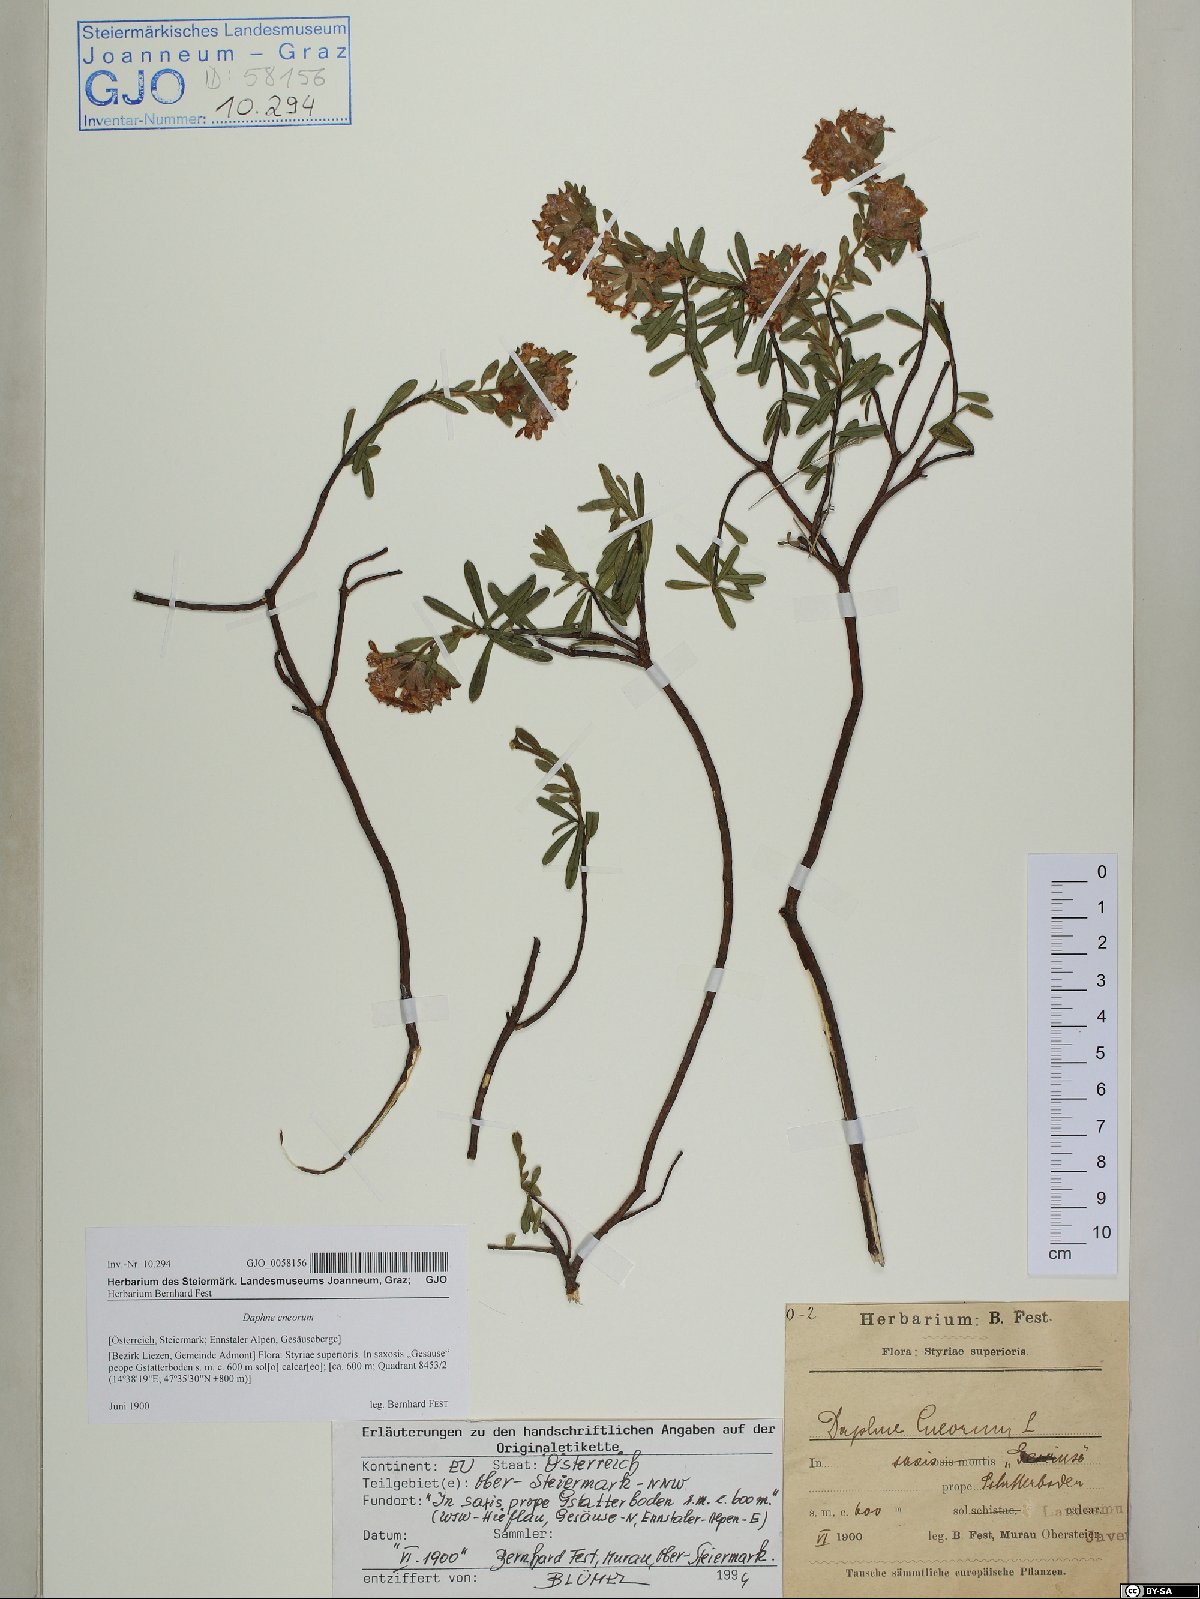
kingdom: Plantae
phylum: Tracheophyta
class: Magnoliopsida
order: Malvales
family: Thymelaeaceae
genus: Daphne
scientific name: Daphne cneorum
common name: Garland-flower
